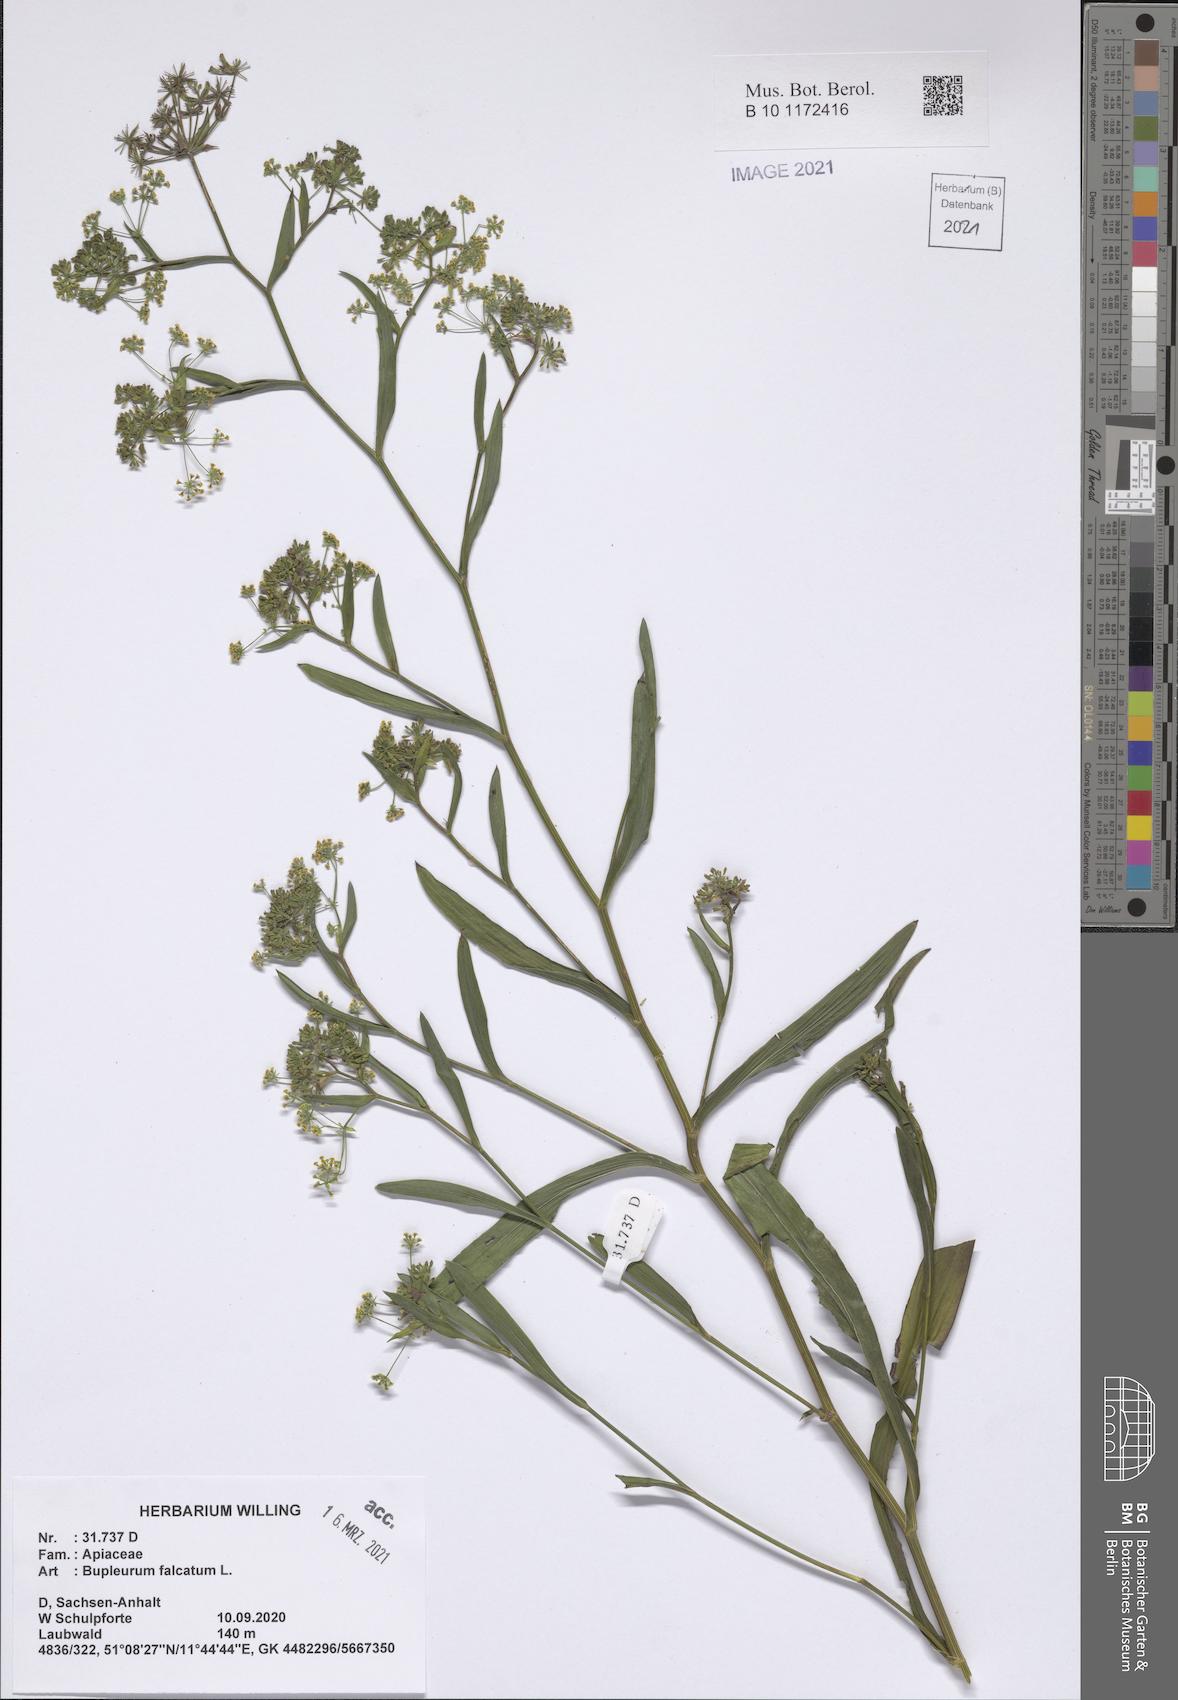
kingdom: Plantae
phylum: Tracheophyta
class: Magnoliopsida
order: Apiales
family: Apiaceae
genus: Bupleurum
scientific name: Bupleurum falcatum
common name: Sickle-leaved hare's-ear
